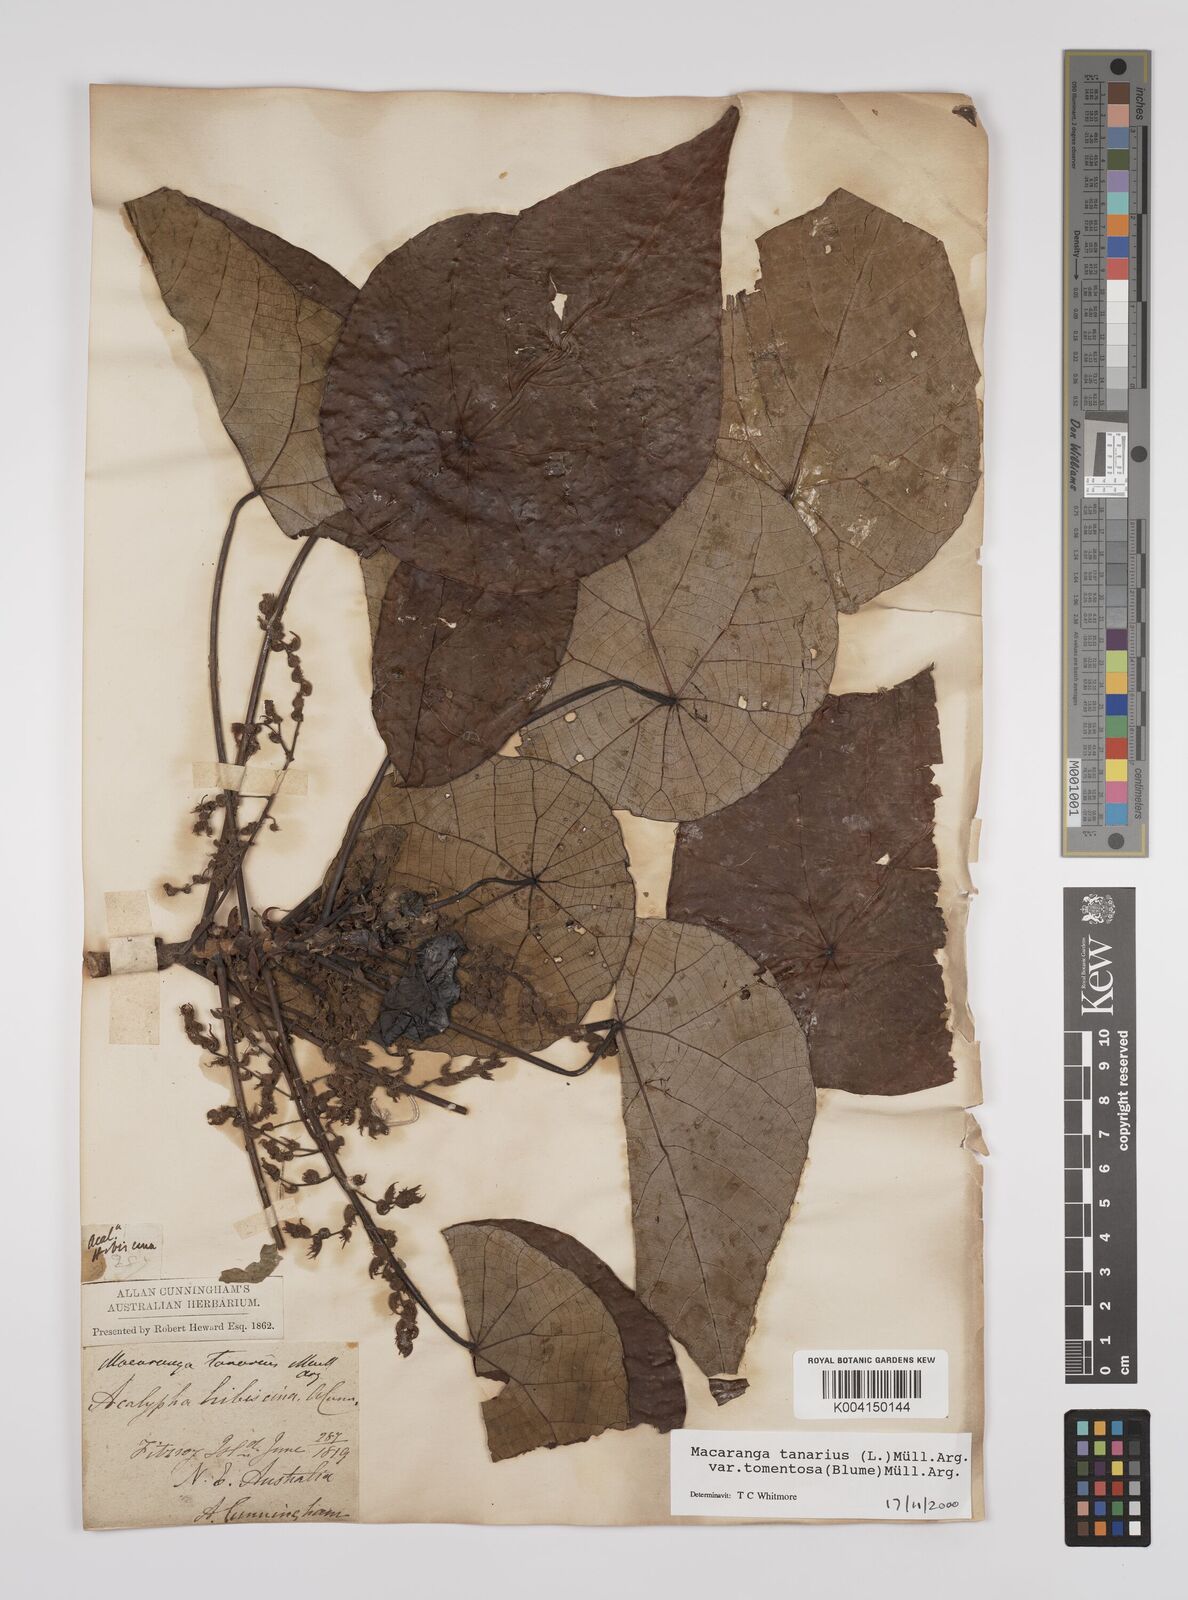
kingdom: Plantae
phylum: Tracheophyta
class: Magnoliopsida
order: Malpighiales
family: Euphorbiaceae
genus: Macaranga
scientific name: Macaranga tanarius
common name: Parasol leaf tree
